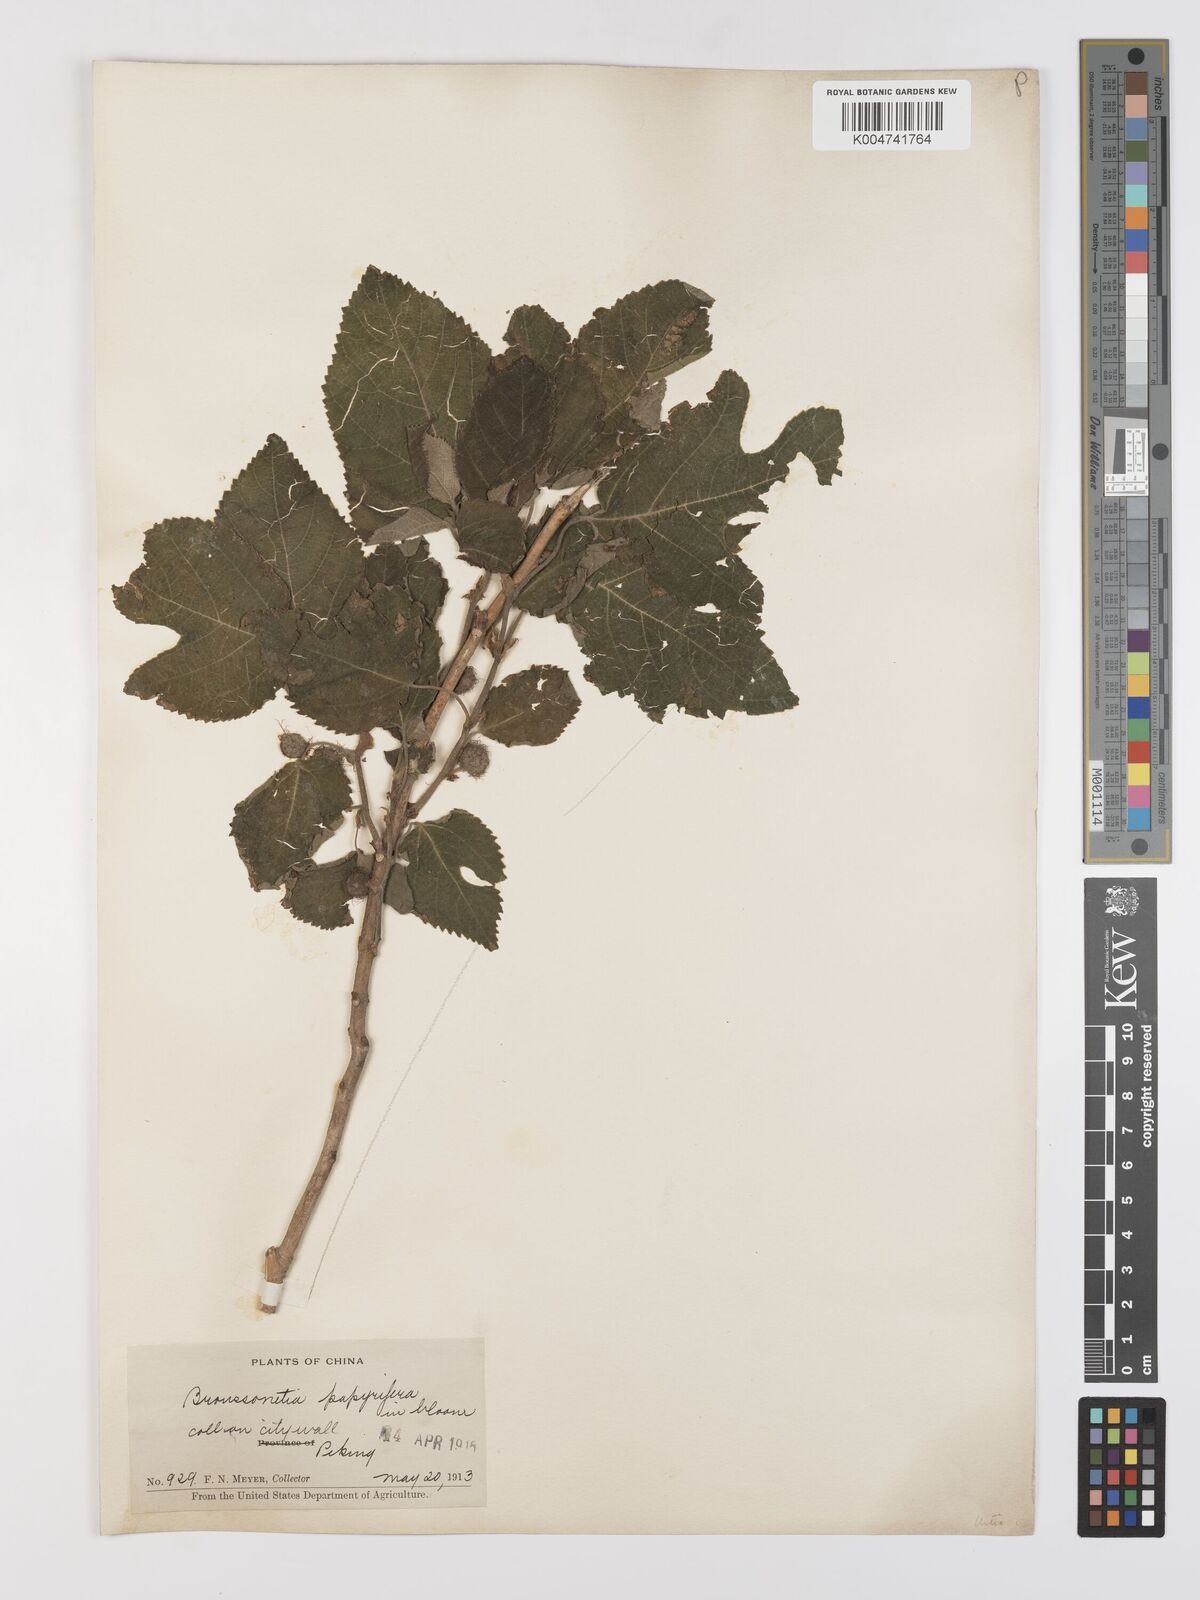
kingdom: Plantae
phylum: Tracheophyta
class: Magnoliopsida
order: Rosales
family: Moraceae
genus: Broussonetia
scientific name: Broussonetia papyrifera
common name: Paper mulberry
